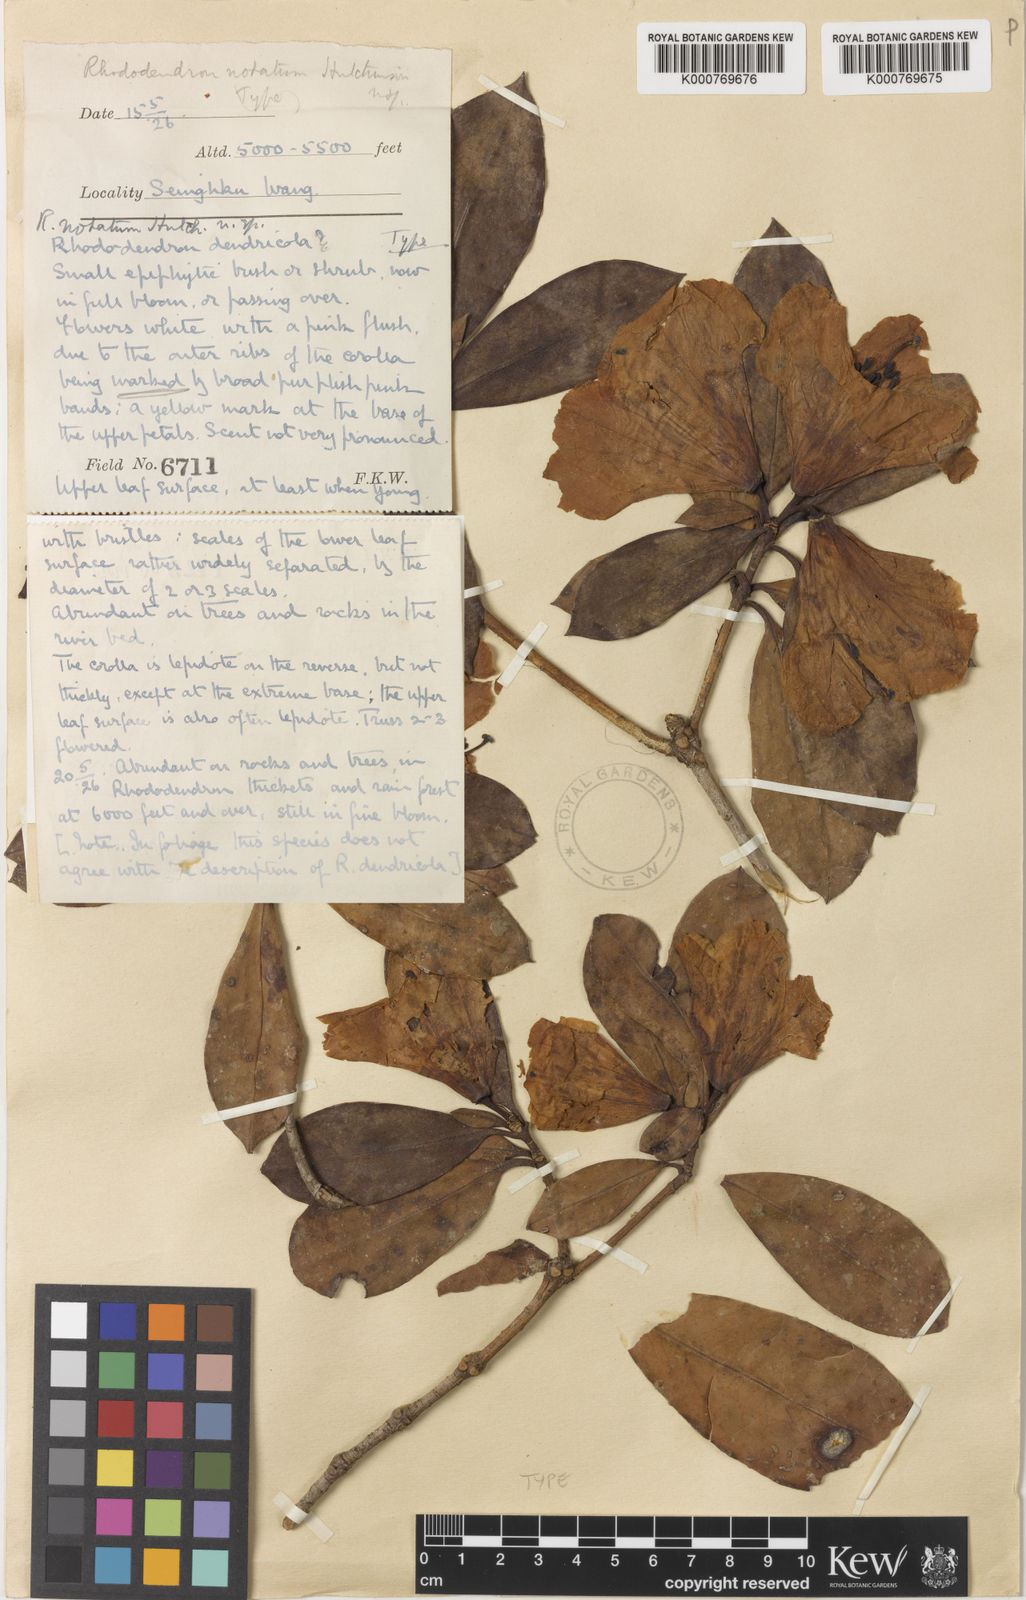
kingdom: Plantae
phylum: Tracheophyta
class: Magnoliopsida
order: Ericales
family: Ericaceae
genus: Rhododendron
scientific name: Rhododendron dendricola
